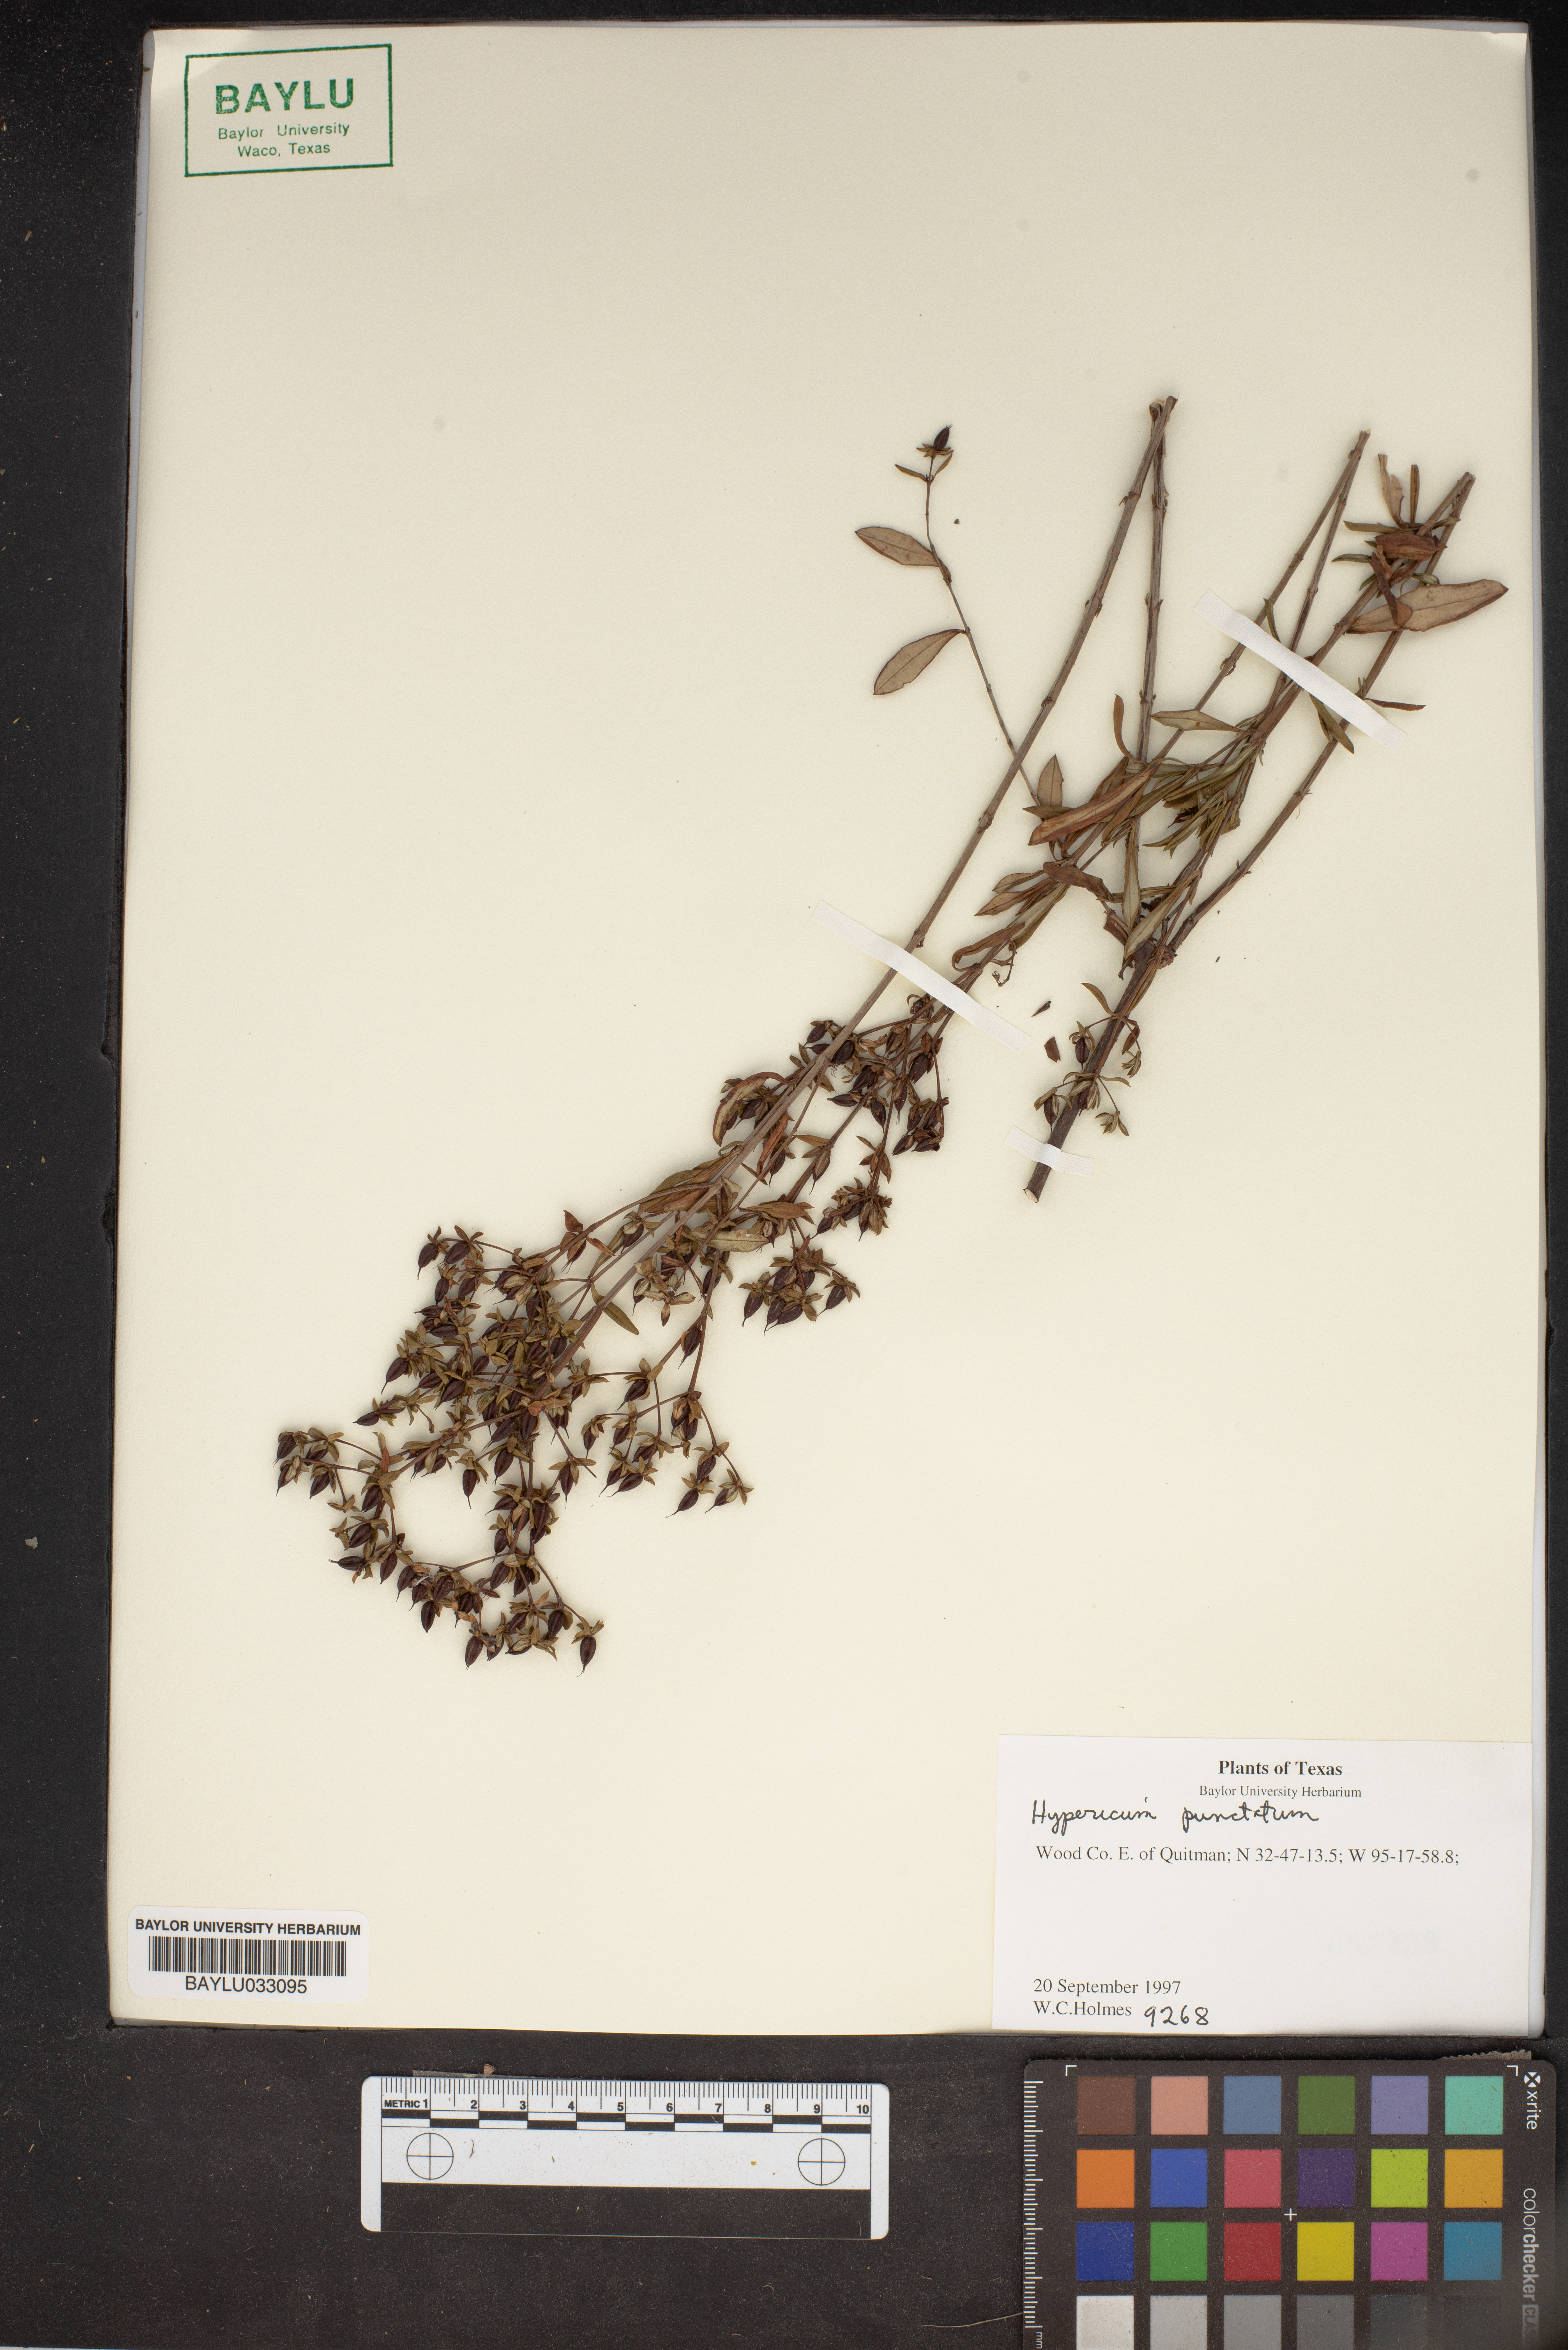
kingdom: Plantae
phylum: Tracheophyta
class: Magnoliopsida
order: Malpighiales
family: Hypericaceae
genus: Hypericum
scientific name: Hypericum punctatum
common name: Spotted st. john's-wort
